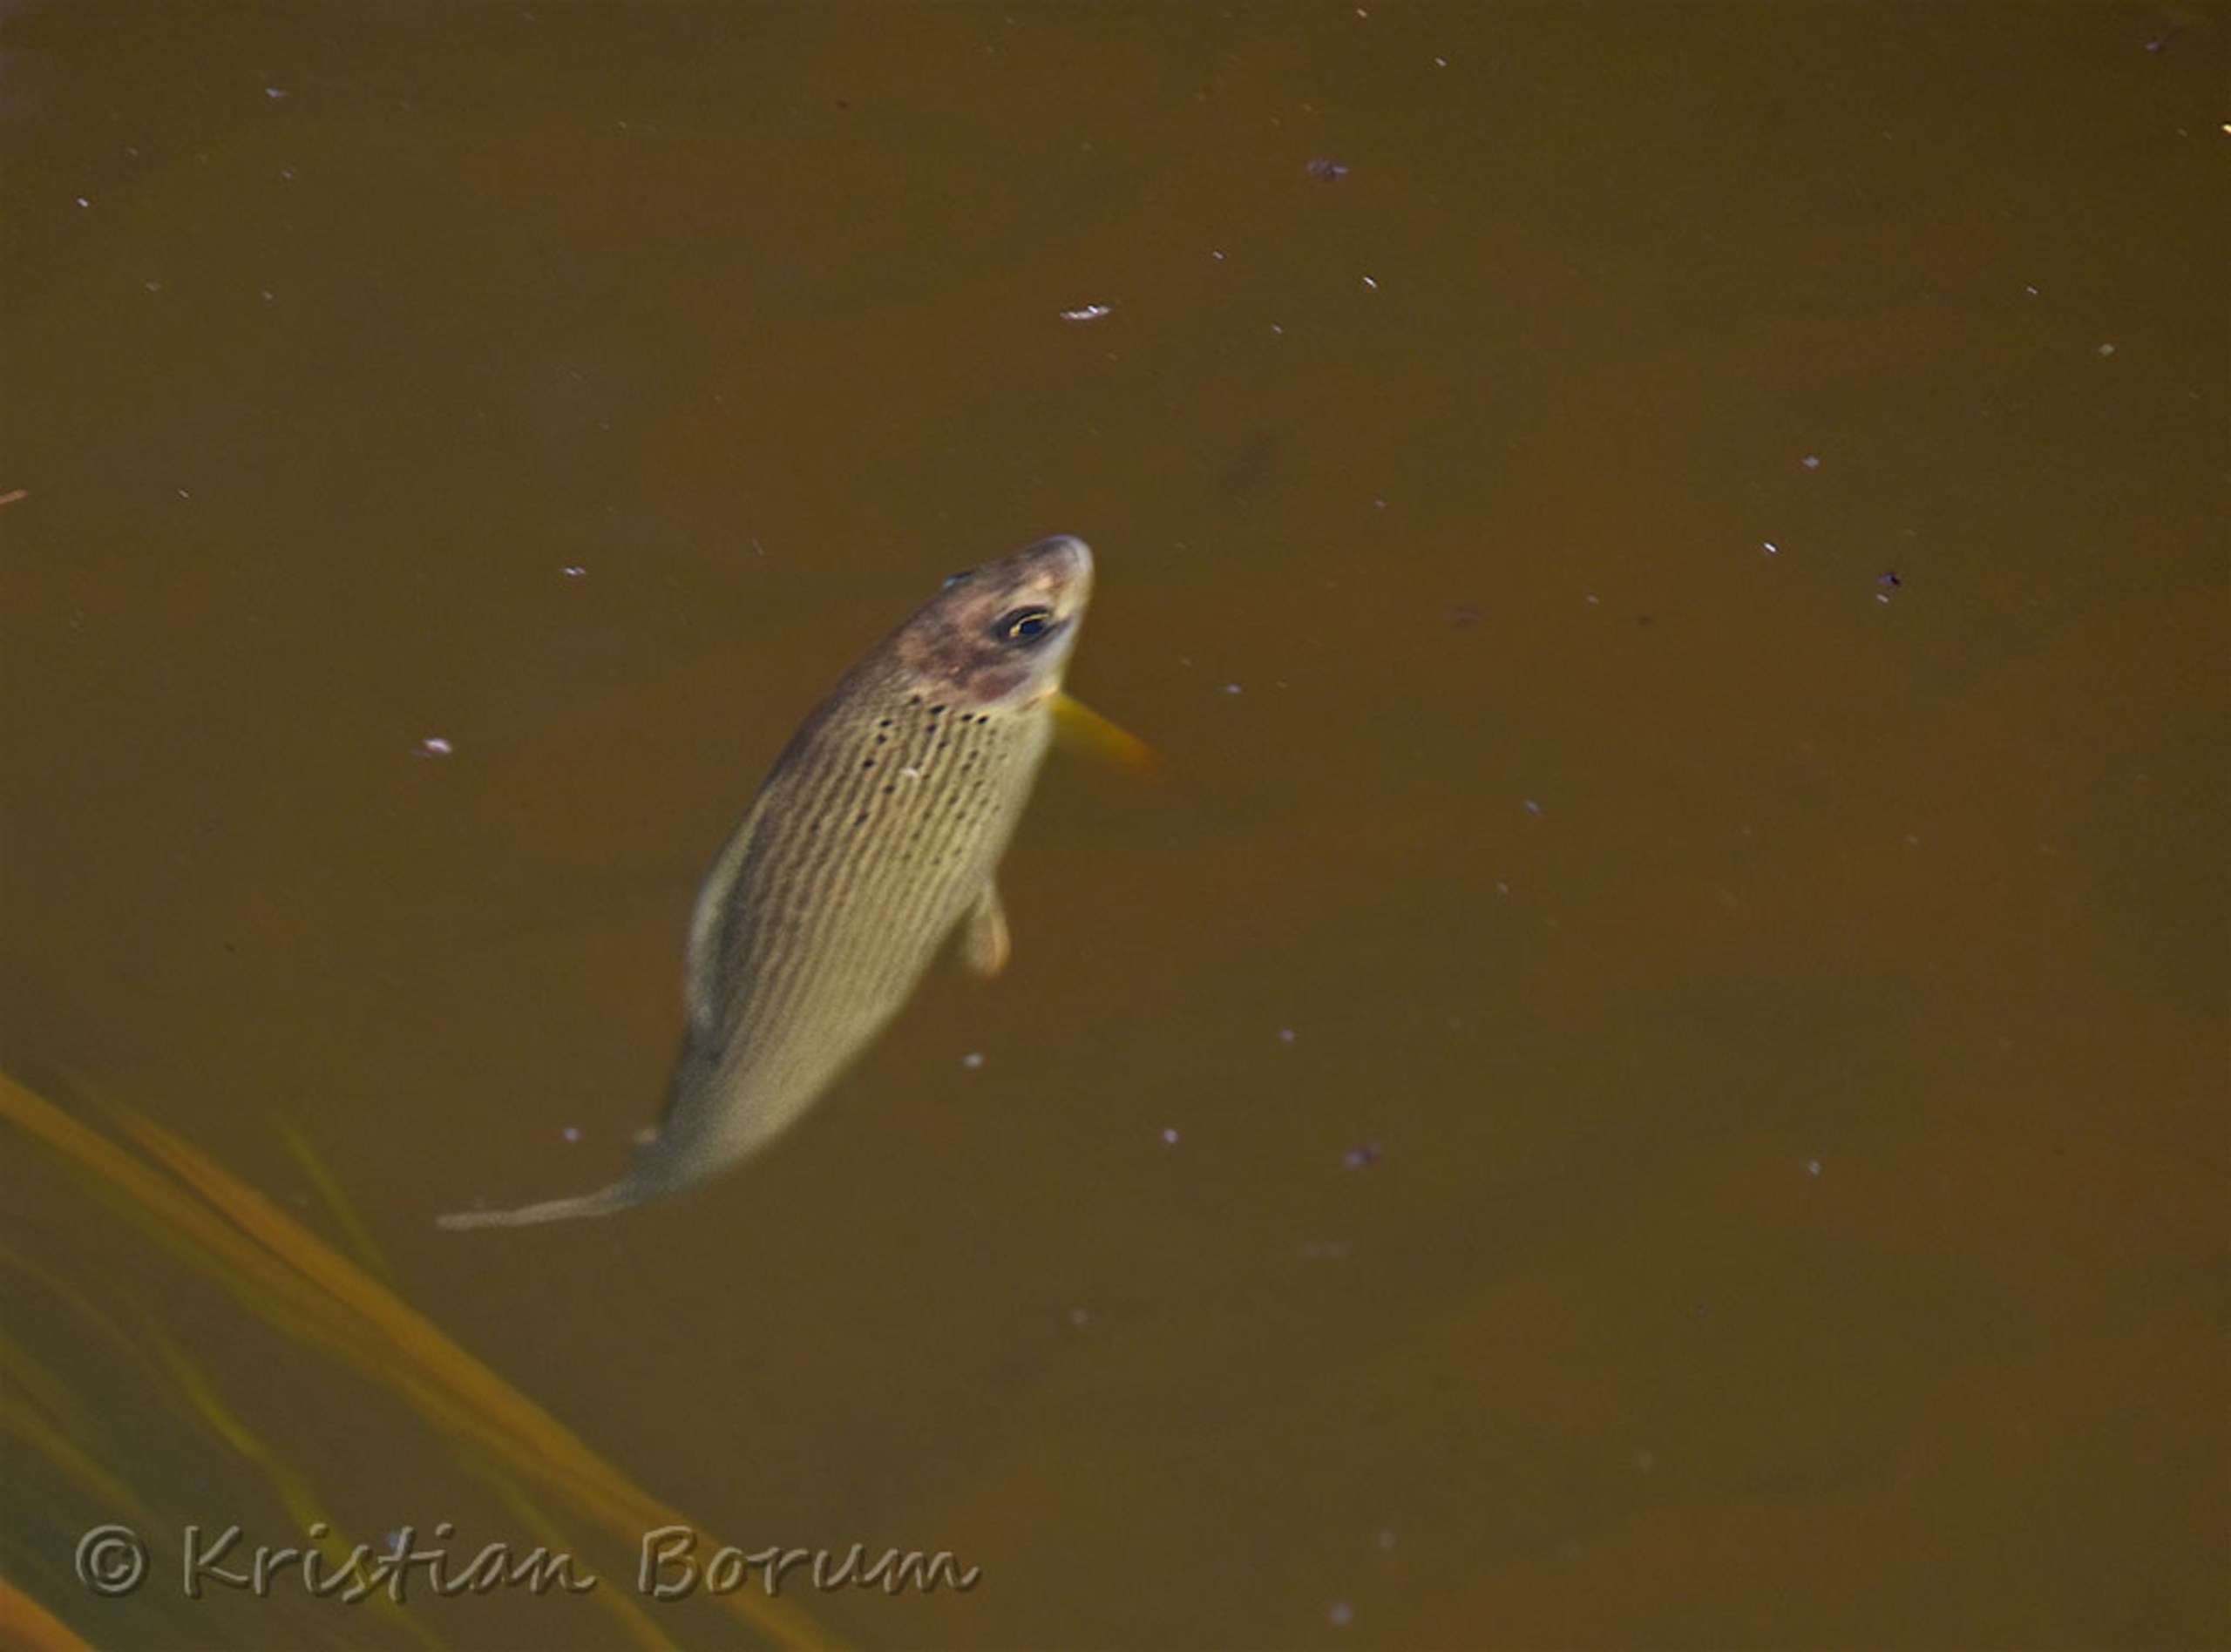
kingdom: Animalia
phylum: Chordata
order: Salmoniformes
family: Salmonidae
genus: Thymallus
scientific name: Thymallus thymallus
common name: Stalling
